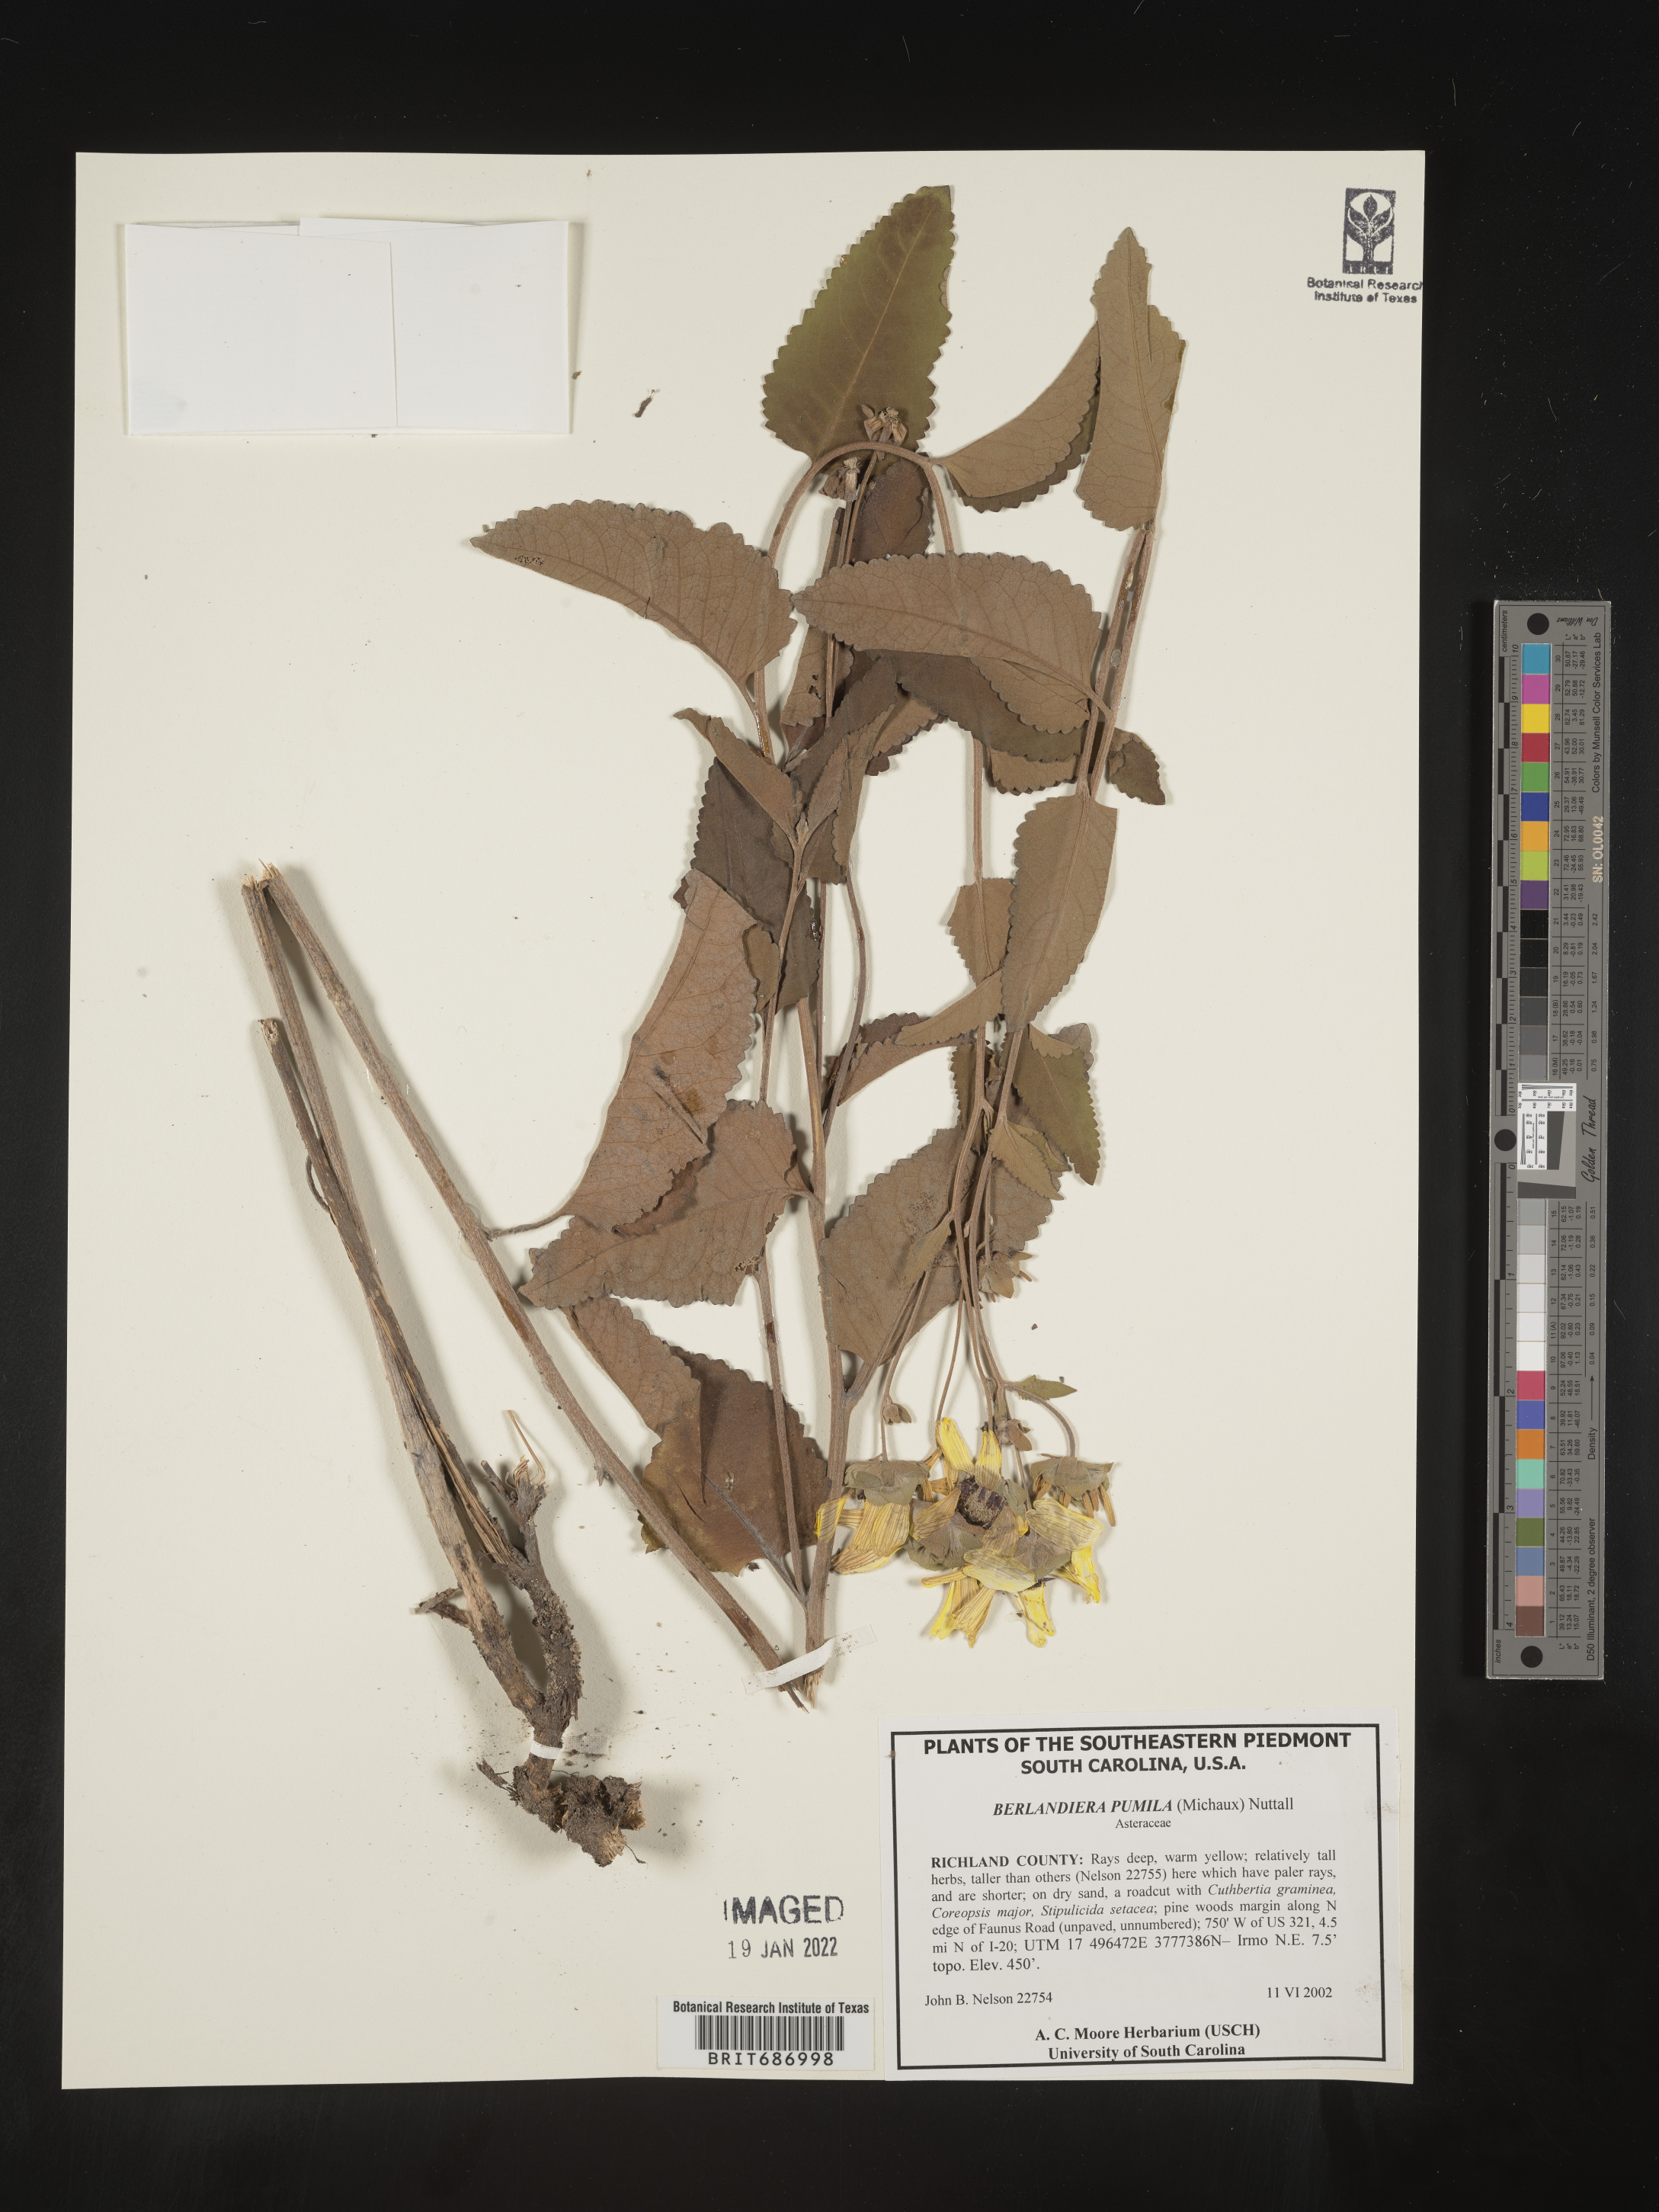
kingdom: Plantae
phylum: Tracheophyta
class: Magnoliopsida
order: Asterales
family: Asteraceae
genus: Berlandiera
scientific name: Berlandiera pumila
